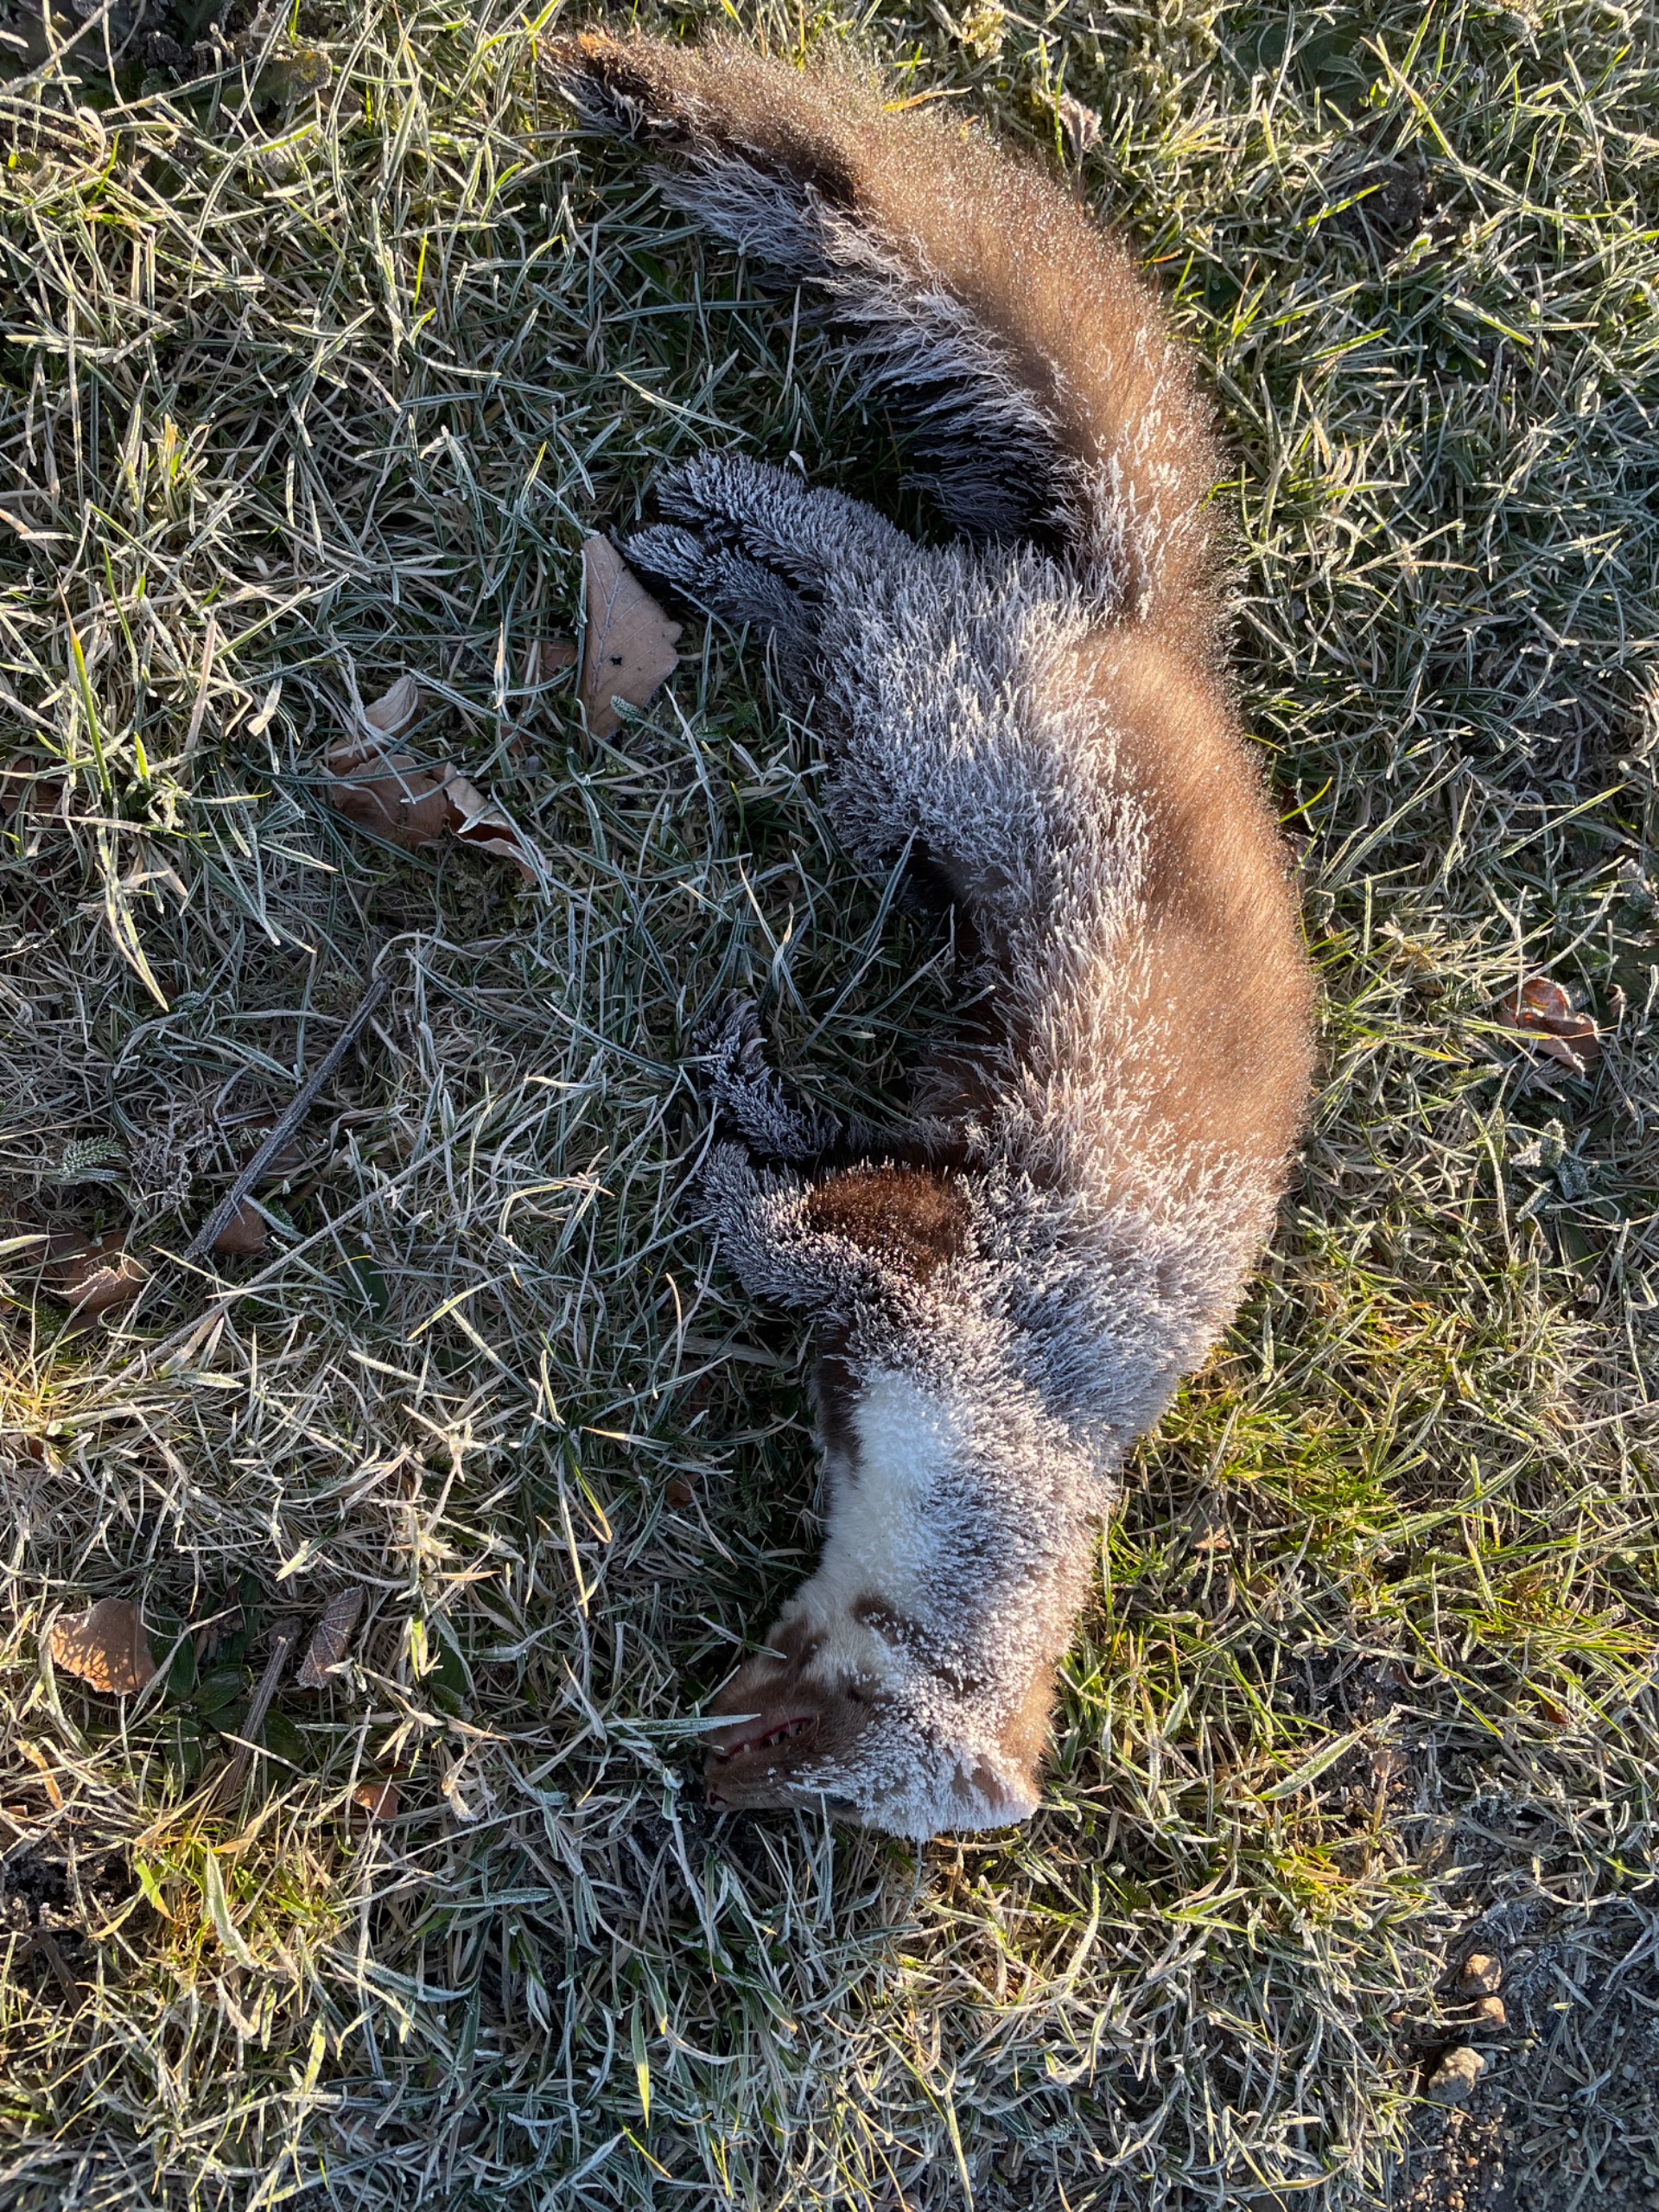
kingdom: Animalia
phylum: Chordata
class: Mammalia
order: Carnivora
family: Mustelidae
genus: Martes
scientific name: Martes foina
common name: Husmår
